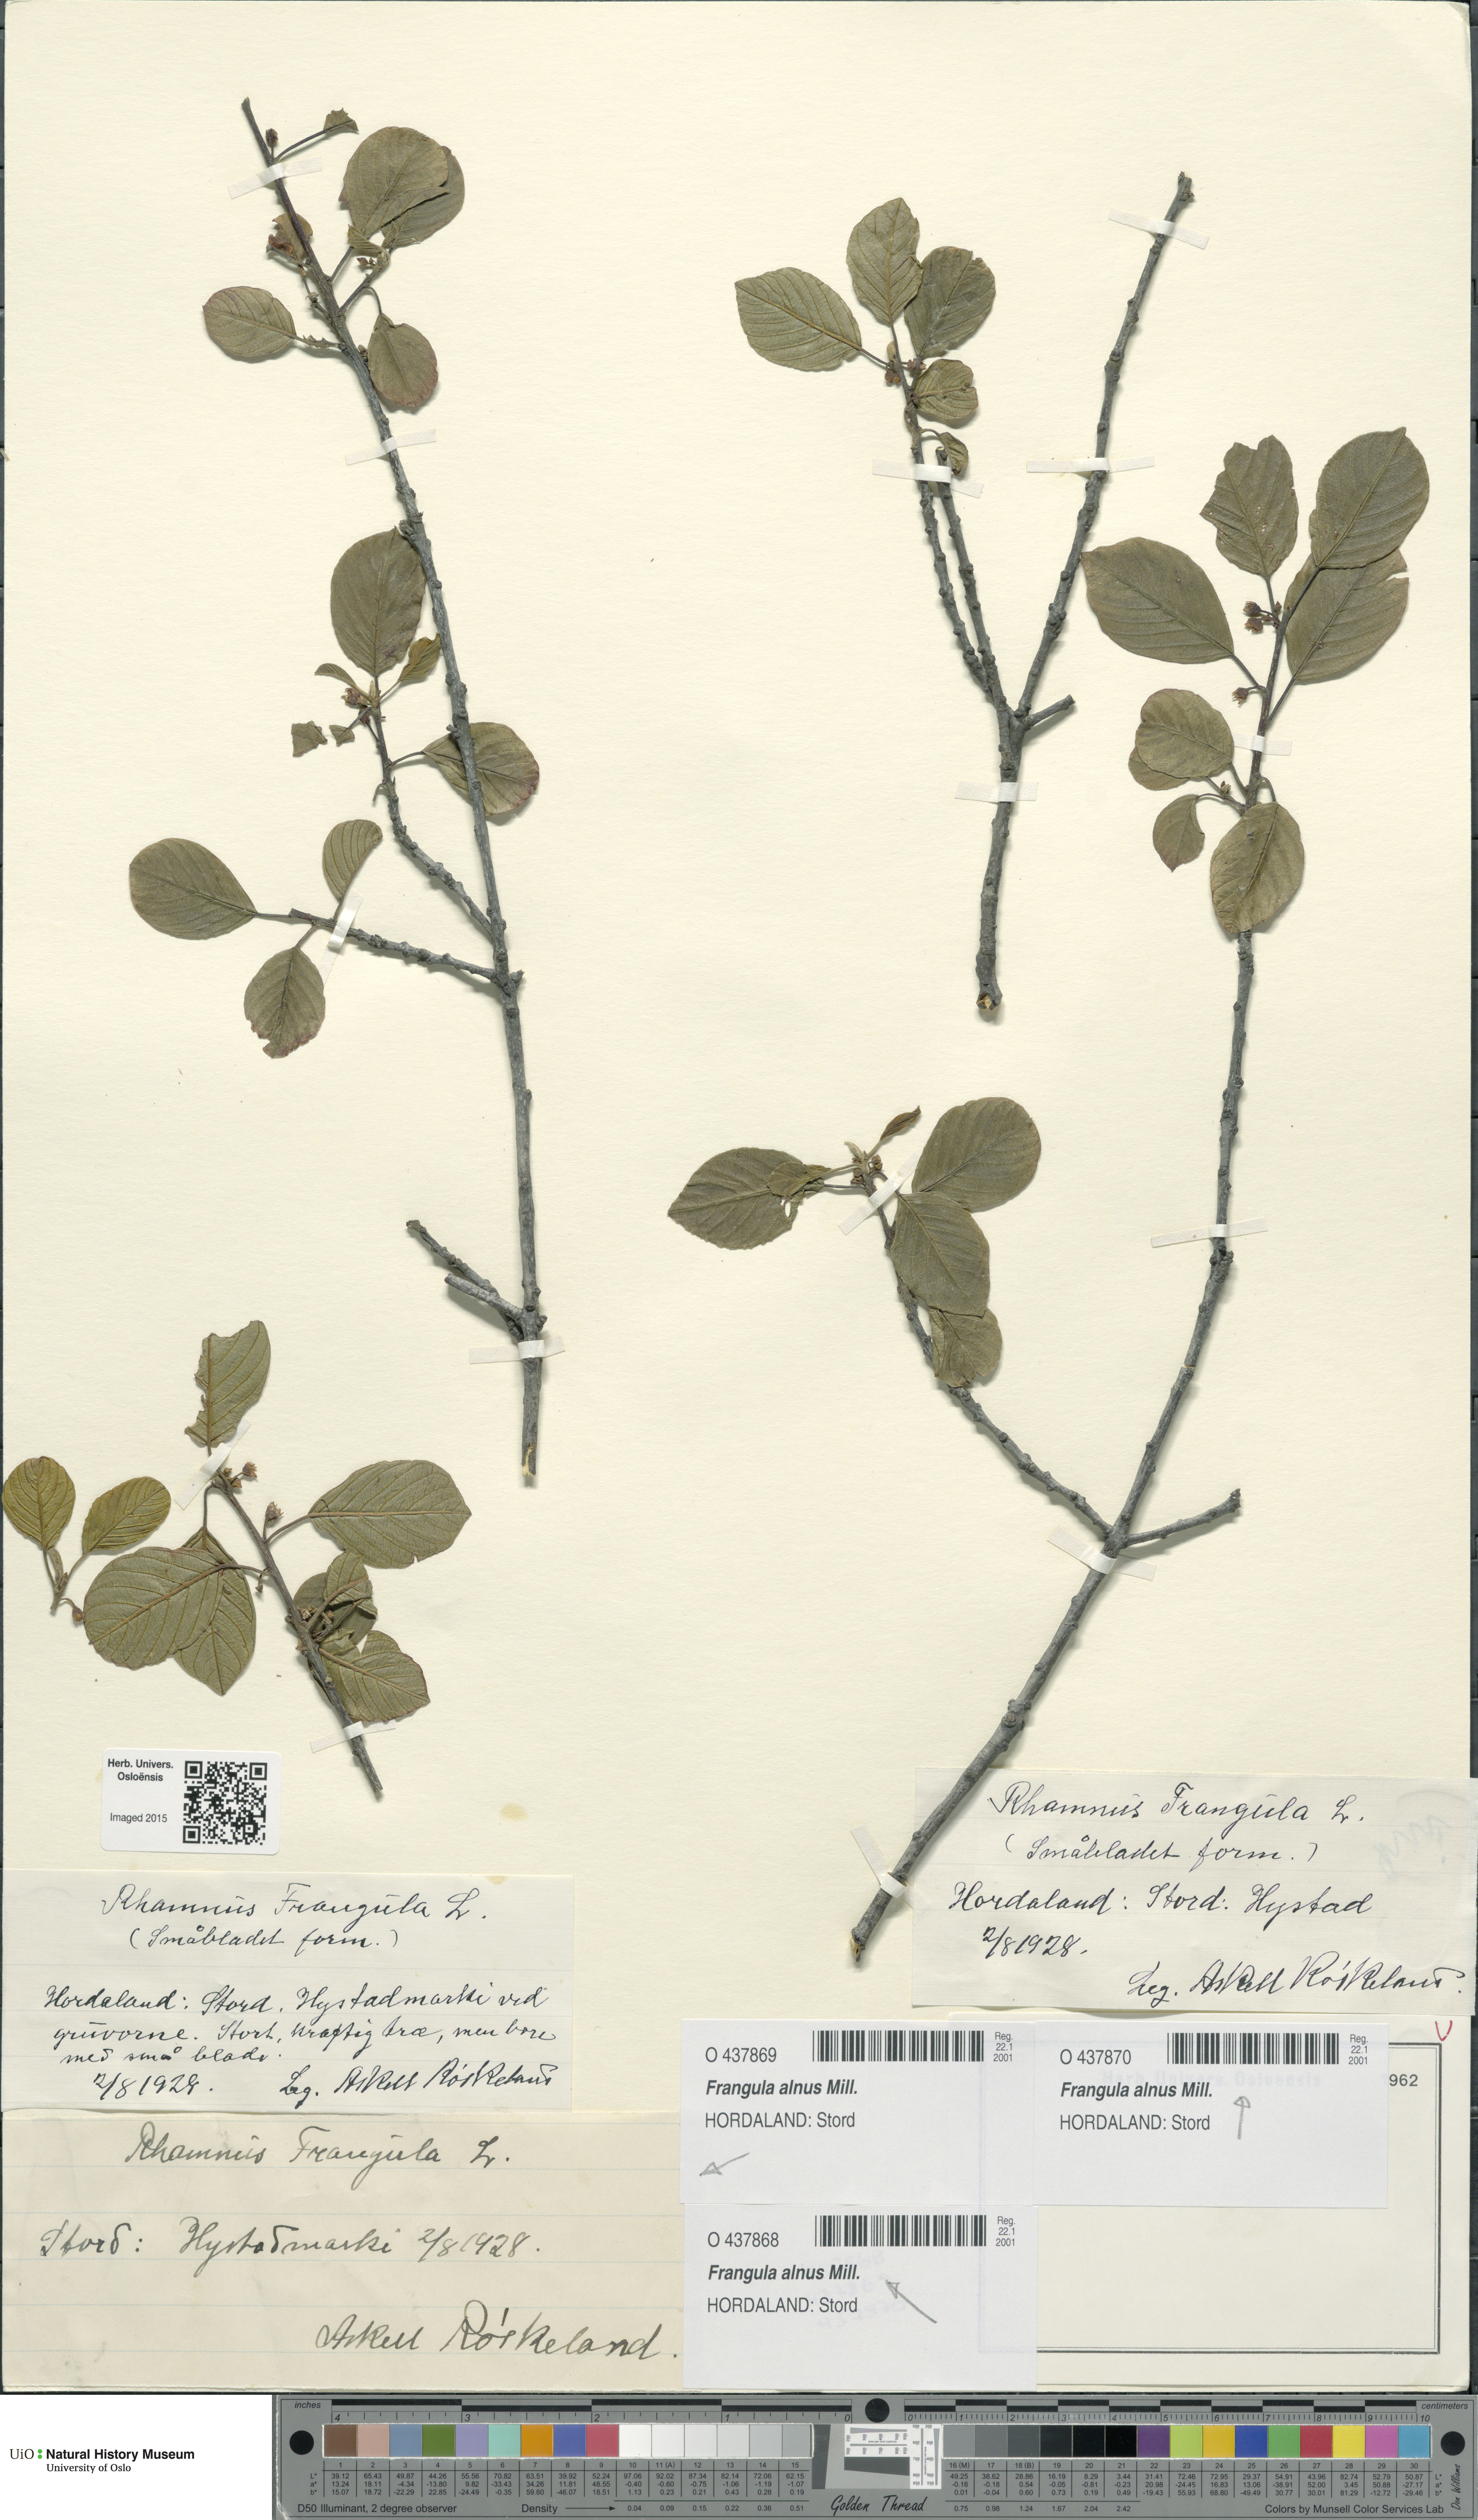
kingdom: Plantae
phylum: Tracheophyta
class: Magnoliopsida
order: Rosales
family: Rhamnaceae
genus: Frangula
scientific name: Frangula alnus
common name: Alder buckthorn
